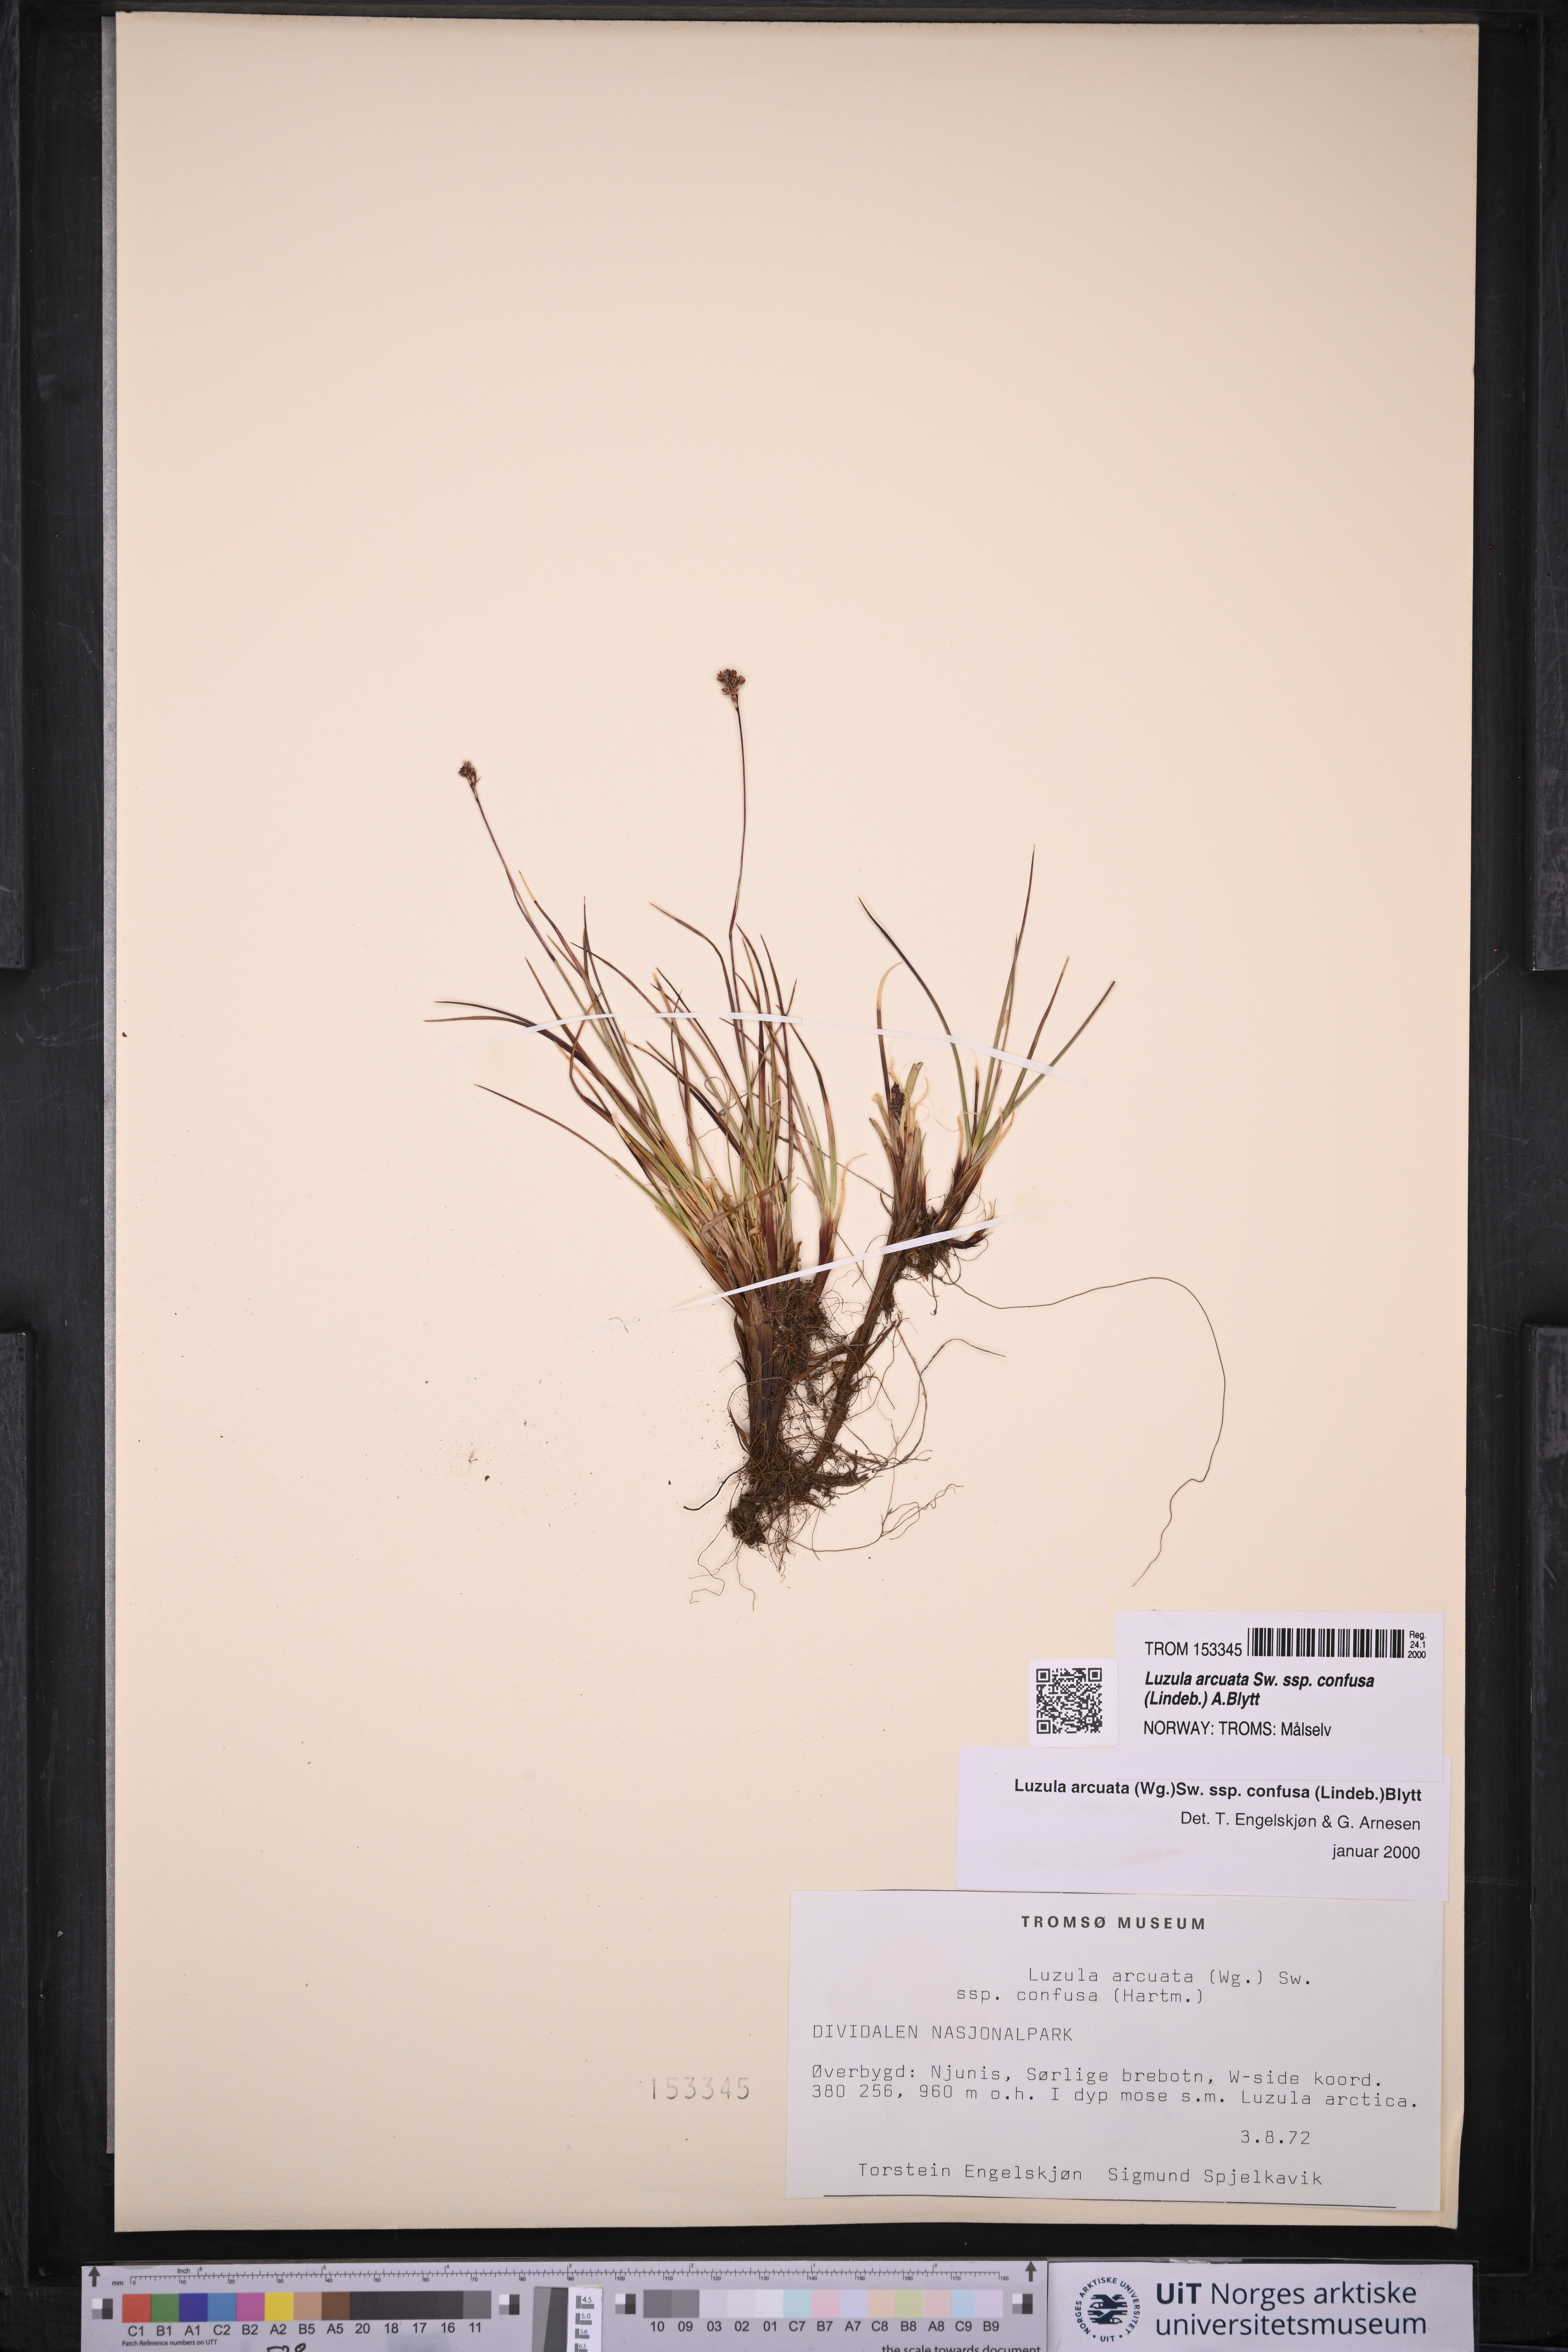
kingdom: Plantae
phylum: Tracheophyta
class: Liliopsida
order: Poales
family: Juncaceae
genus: Luzula
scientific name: Luzula confusa
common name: Northern wood rush
